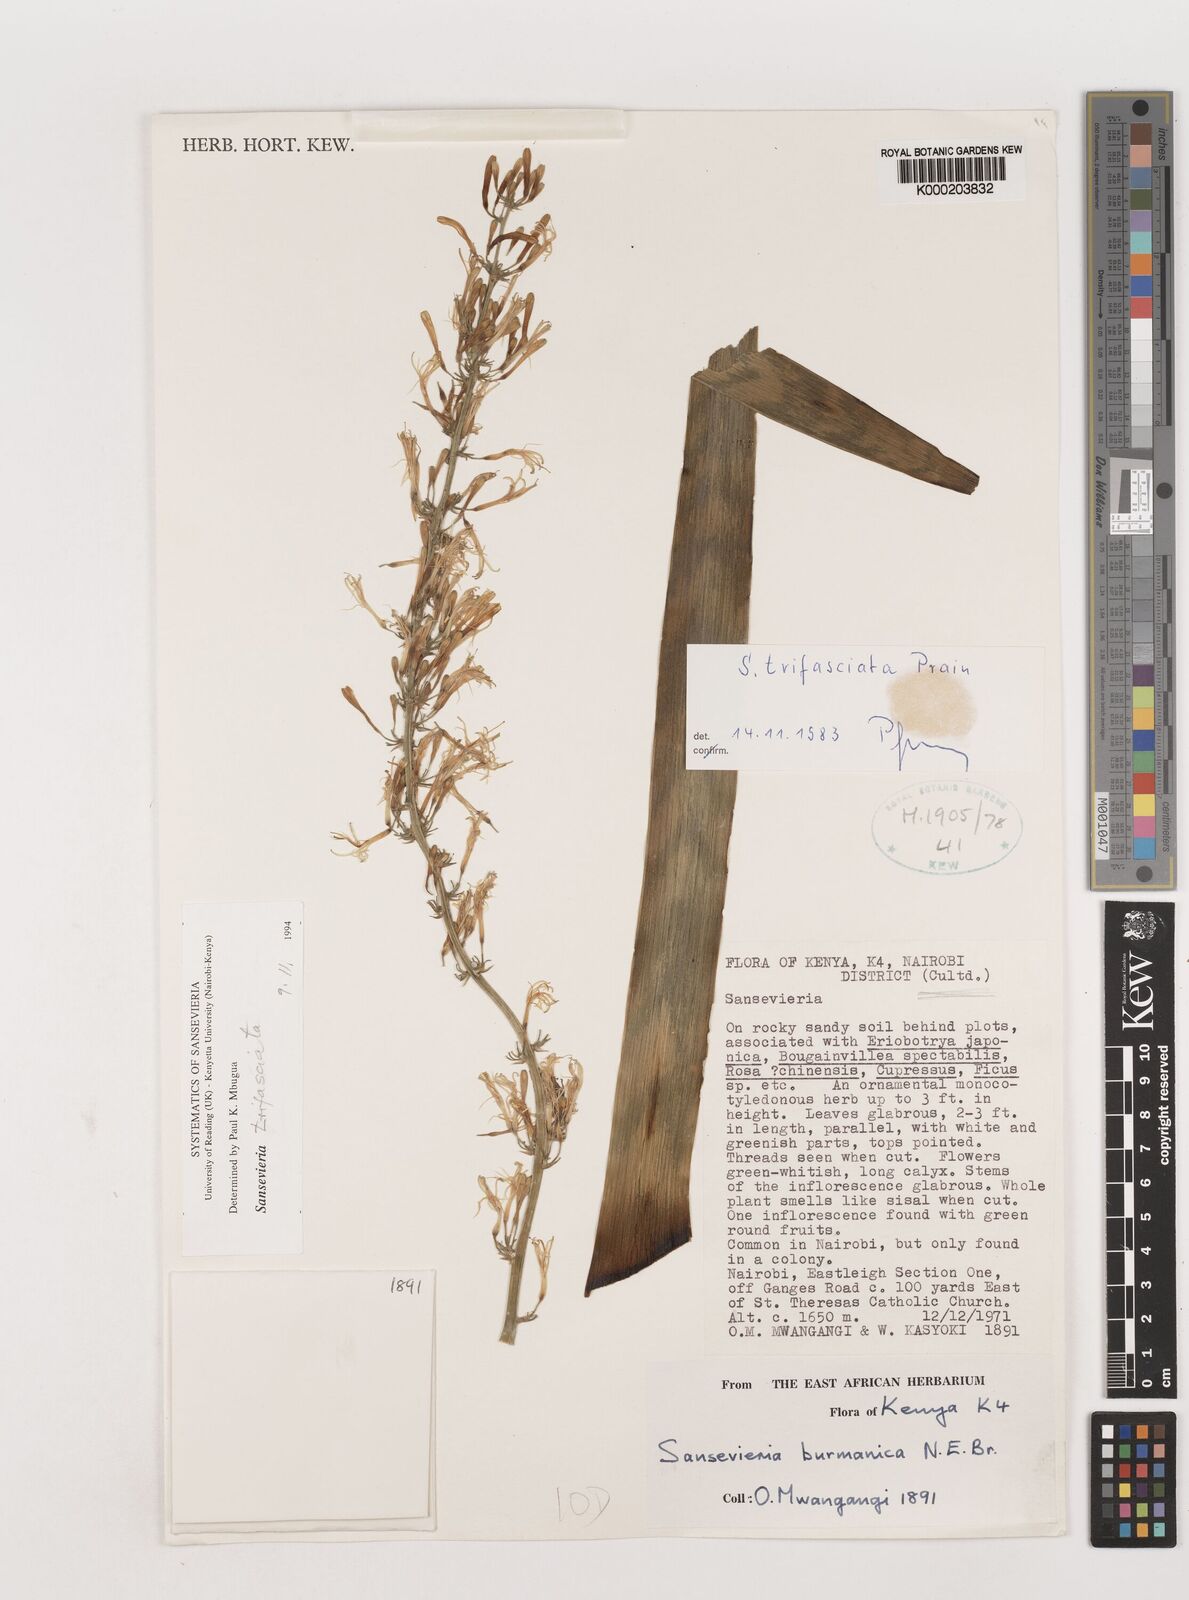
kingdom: Plantae
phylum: Tracheophyta
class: Liliopsida
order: Asparagales
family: Asparagaceae
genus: Dracaena
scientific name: Dracaena trifasciata
